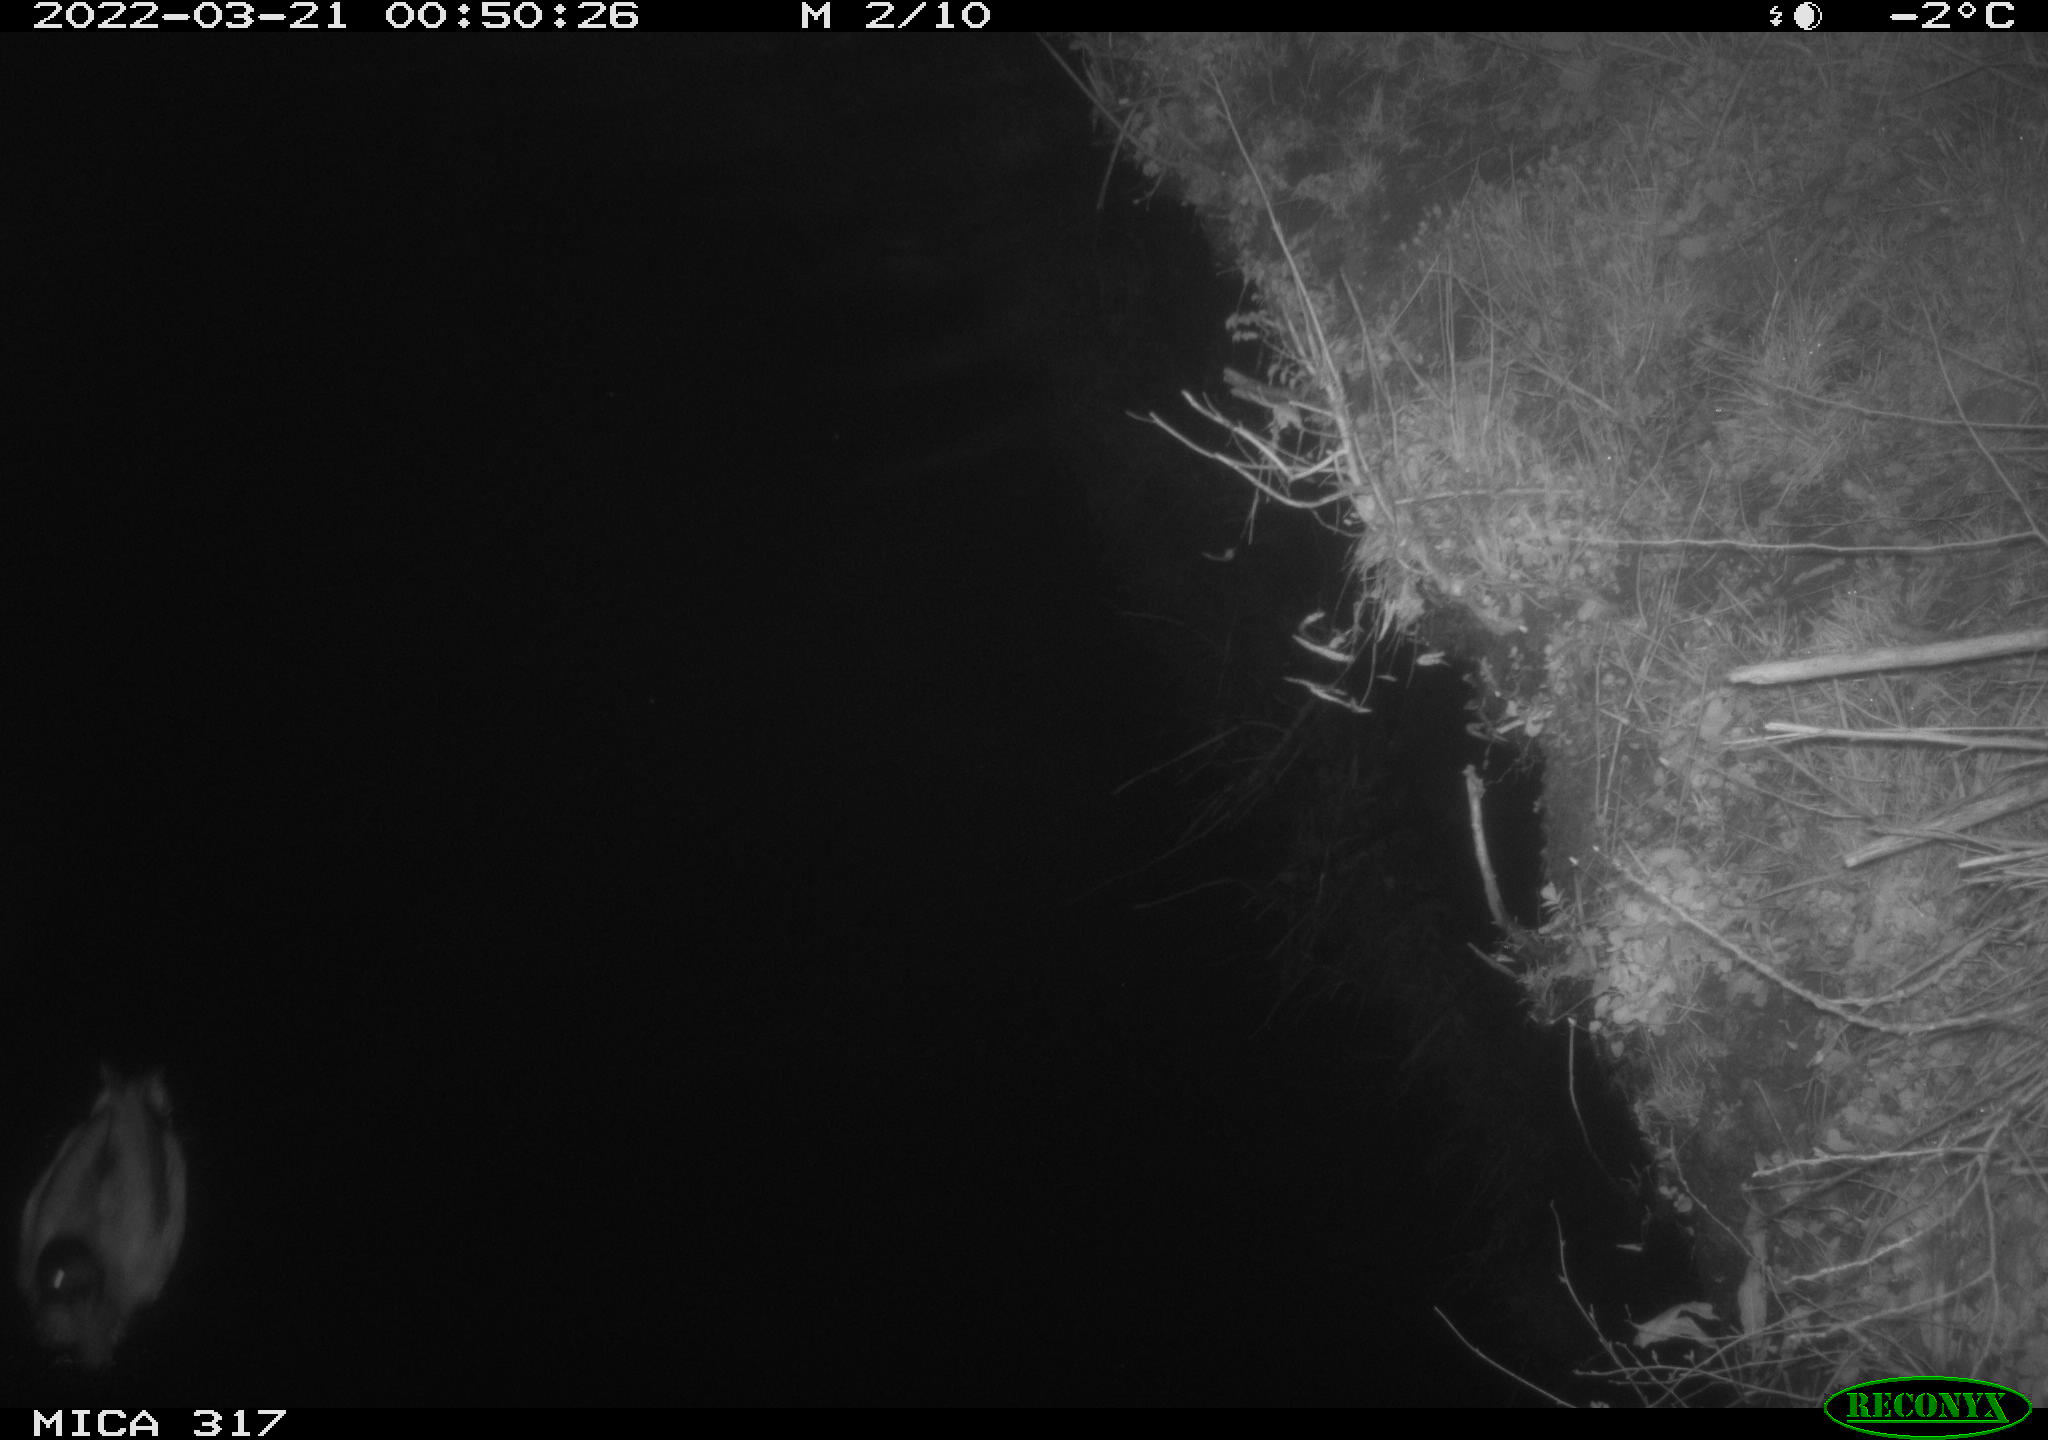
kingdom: Animalia
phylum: Chordata
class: Aves
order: Anseriformes
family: Anatidae
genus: Anas
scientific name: Anas platyrhynchos
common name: Mallard
